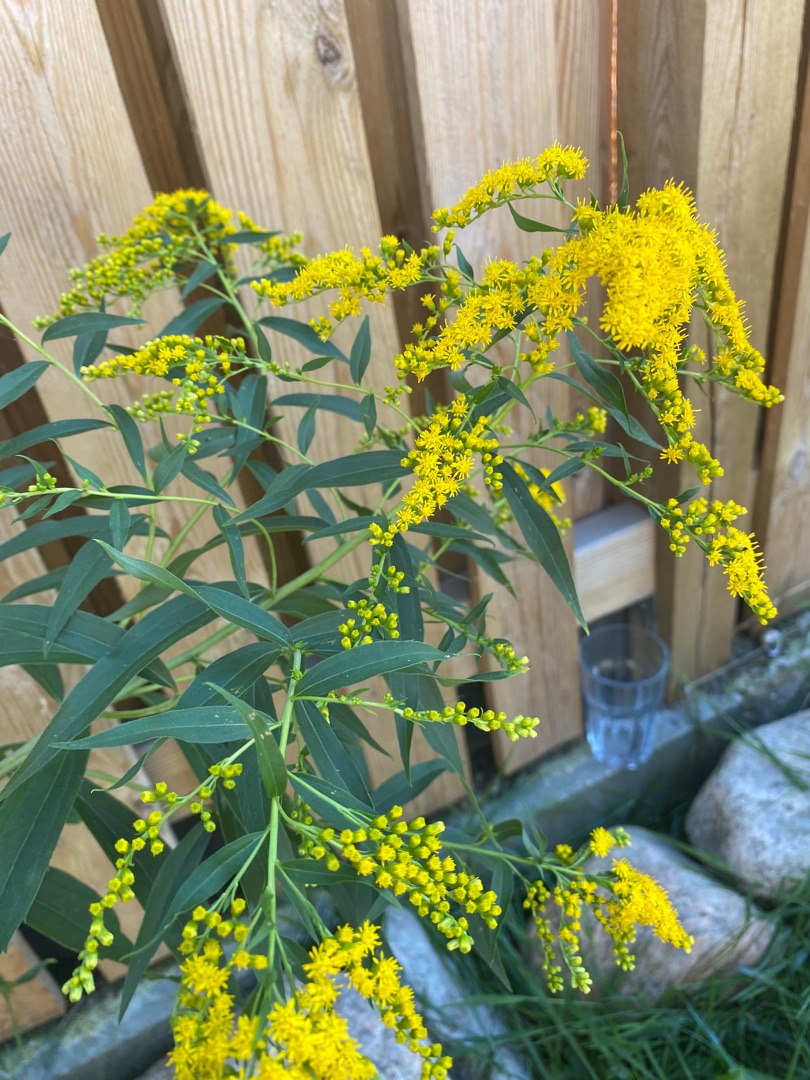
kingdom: Plantae
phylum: Tracheophyta
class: Magnoliopsida
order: Asterales
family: Asteraceae
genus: Solidago
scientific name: Solidago gigantea
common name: Sildig gyldenris
